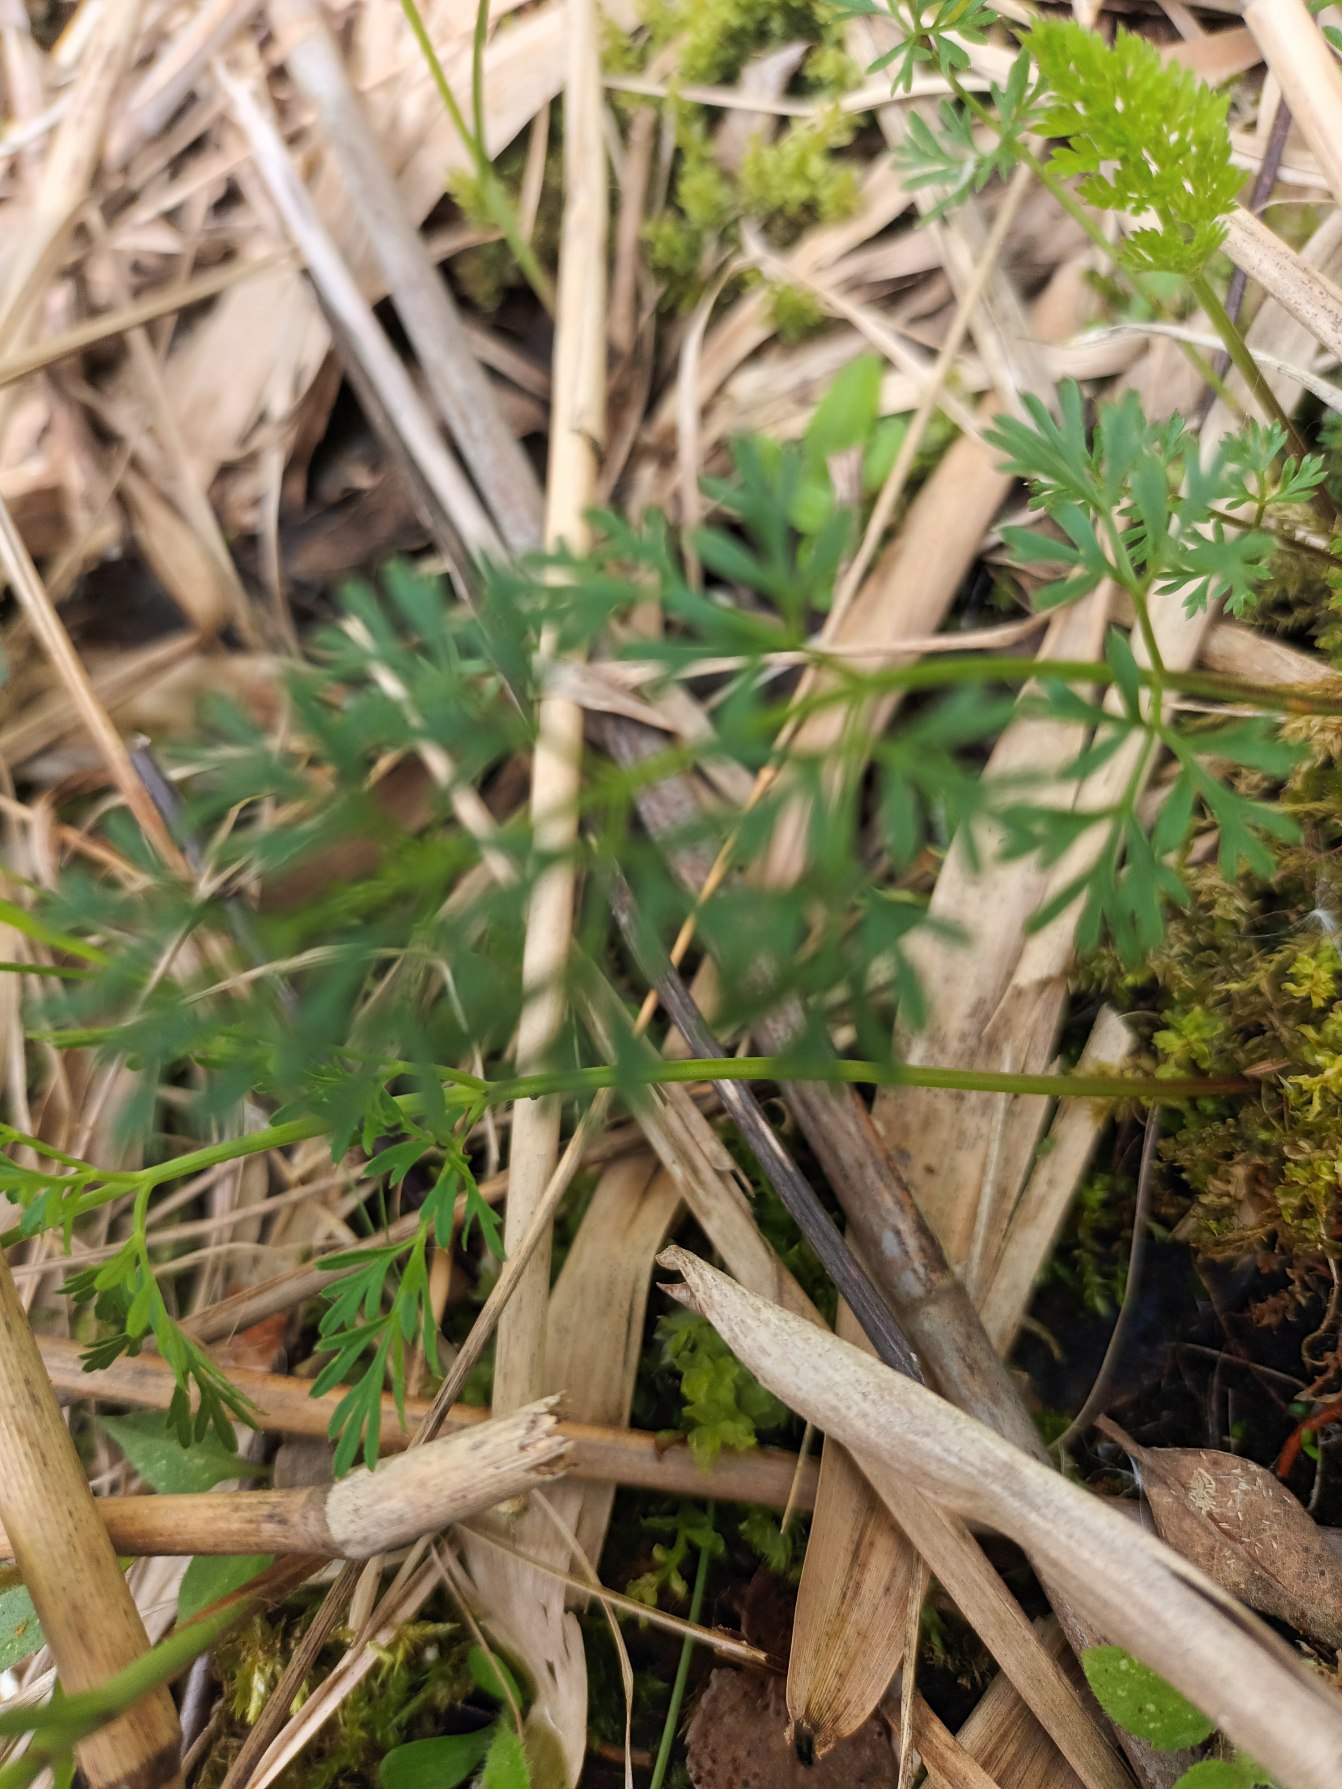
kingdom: Plantae
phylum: Tracheophyta
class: Magnoliopsida
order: Apiales
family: Apiaceae
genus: Selinum
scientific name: Selinum carvifolia
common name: Seline
